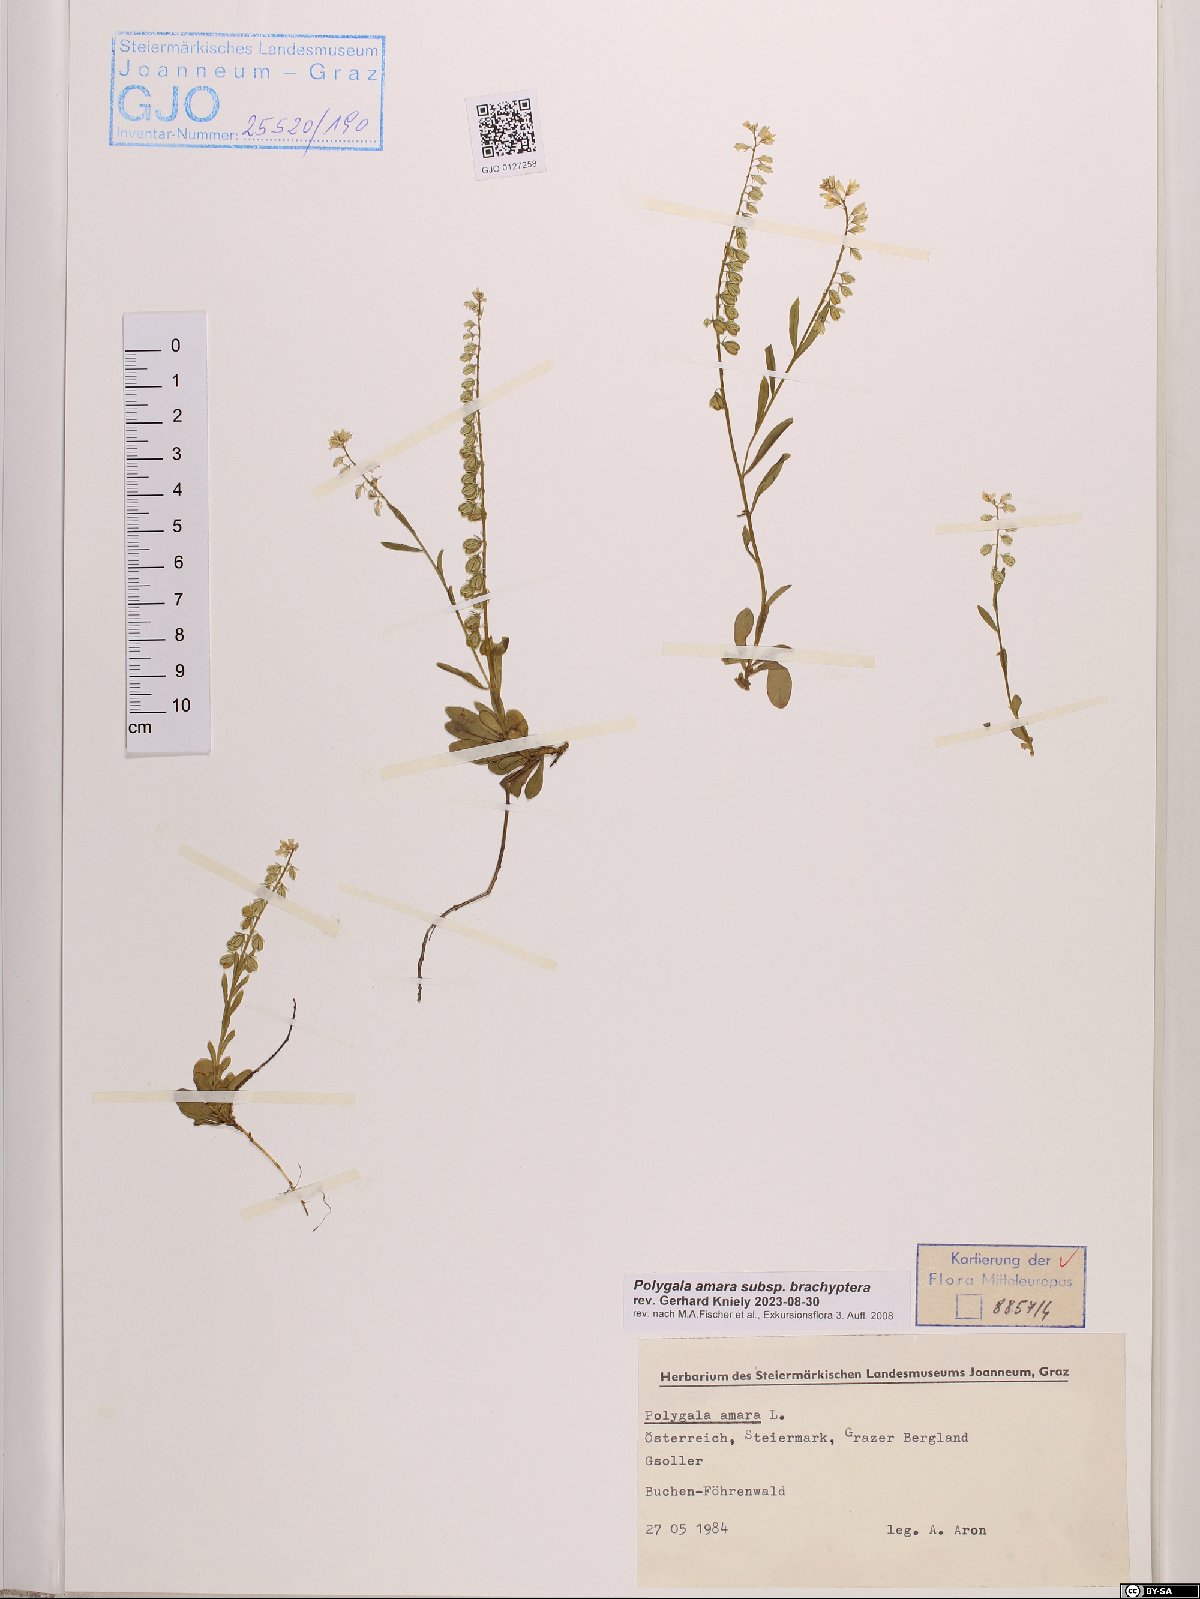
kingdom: Plantae
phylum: Tracheophyta
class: Magnoliopsida
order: Fabales
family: Polygalaceae
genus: Polygala
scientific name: Polygala amara
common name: Milkwort
